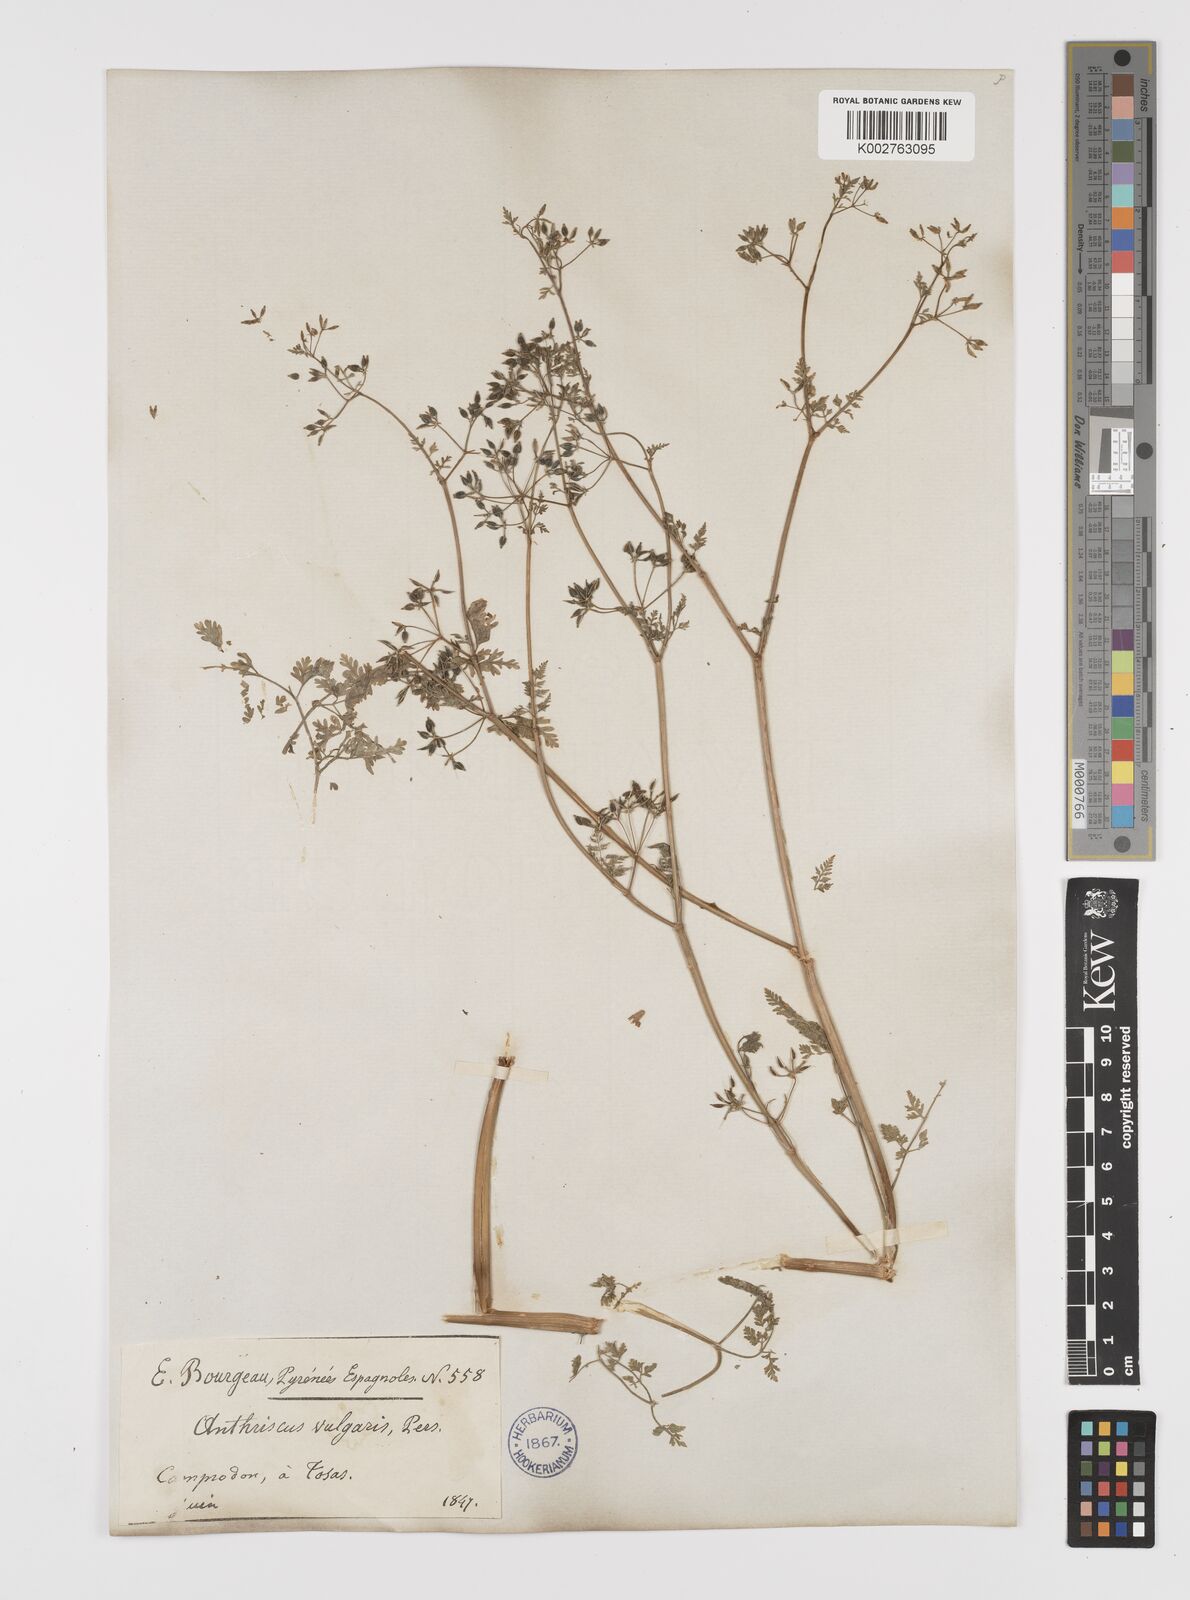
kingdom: Plantae
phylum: Tracheophyta
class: Magnoliopsida
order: Apiales
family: Apiaceae
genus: Anthriscus
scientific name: Anthriscus caucalis
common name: Bur chervil
